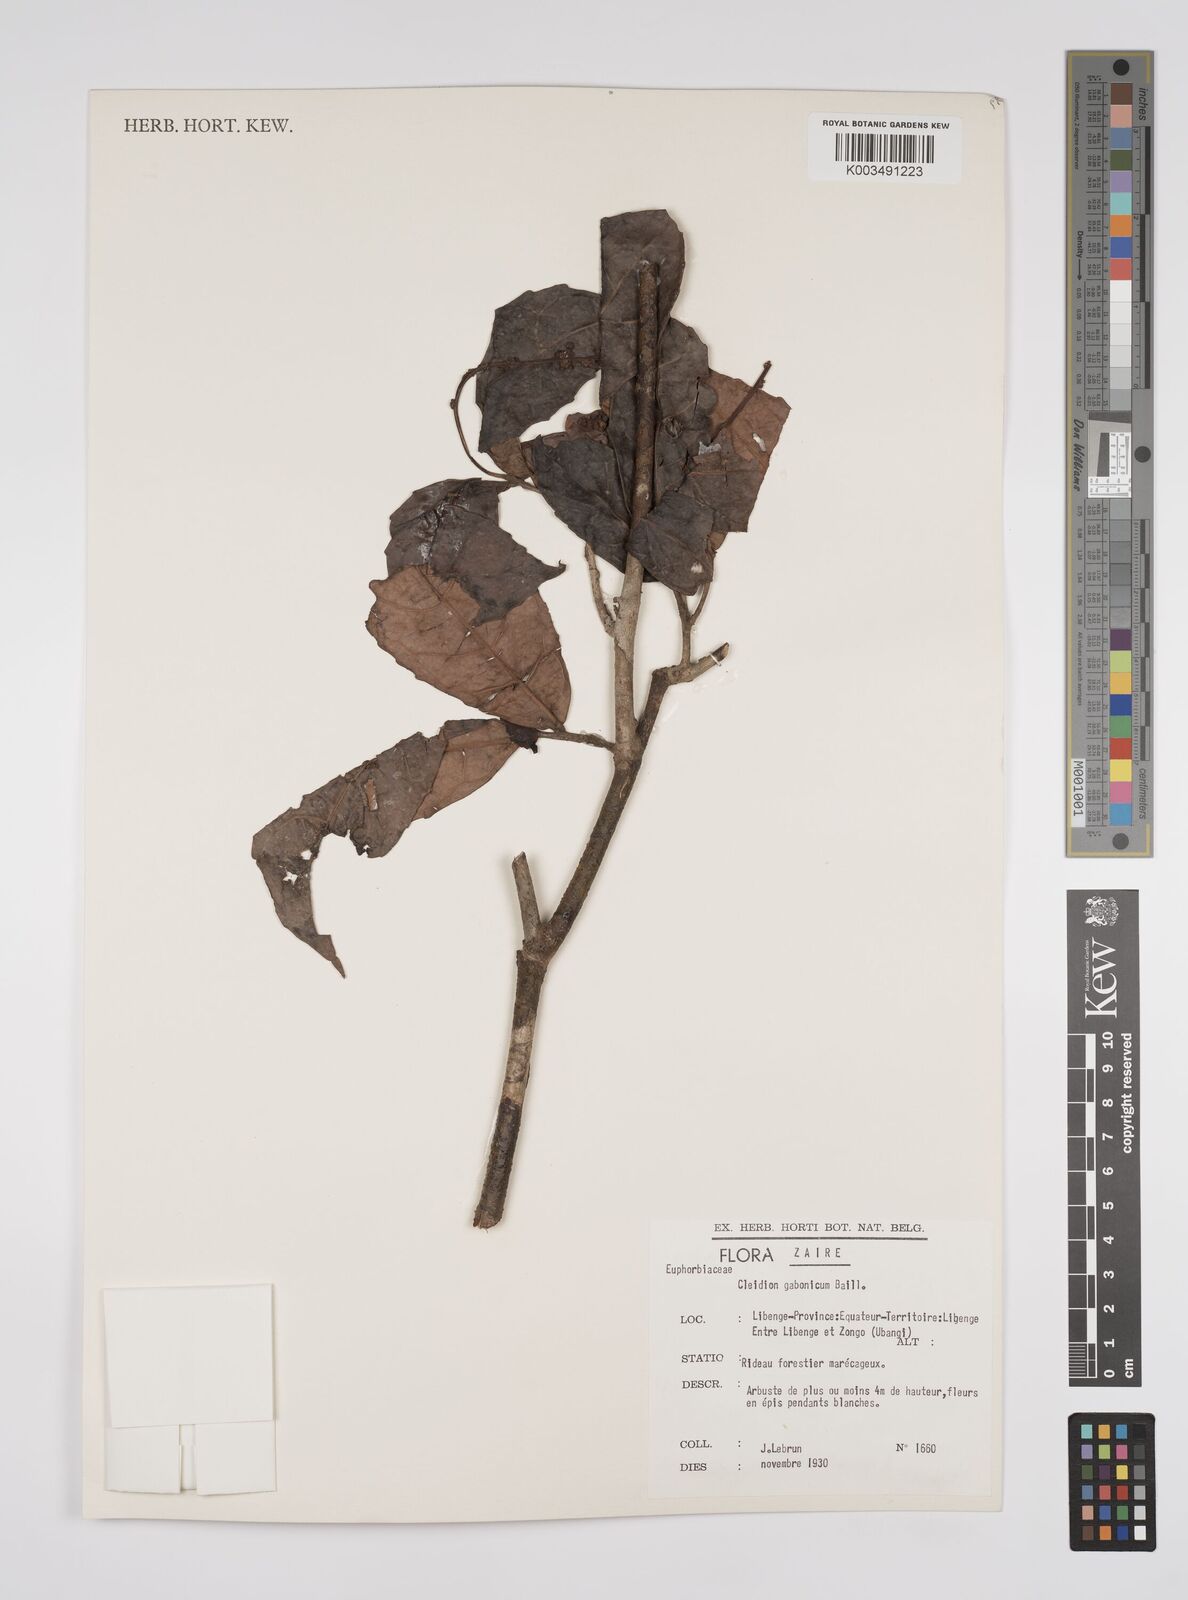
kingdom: Plantae
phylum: Tracheophyta
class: Magnoliopsida
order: Malpighiales
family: Euphorbiaceae
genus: Cleidion
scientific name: Cleidion gabonicum
